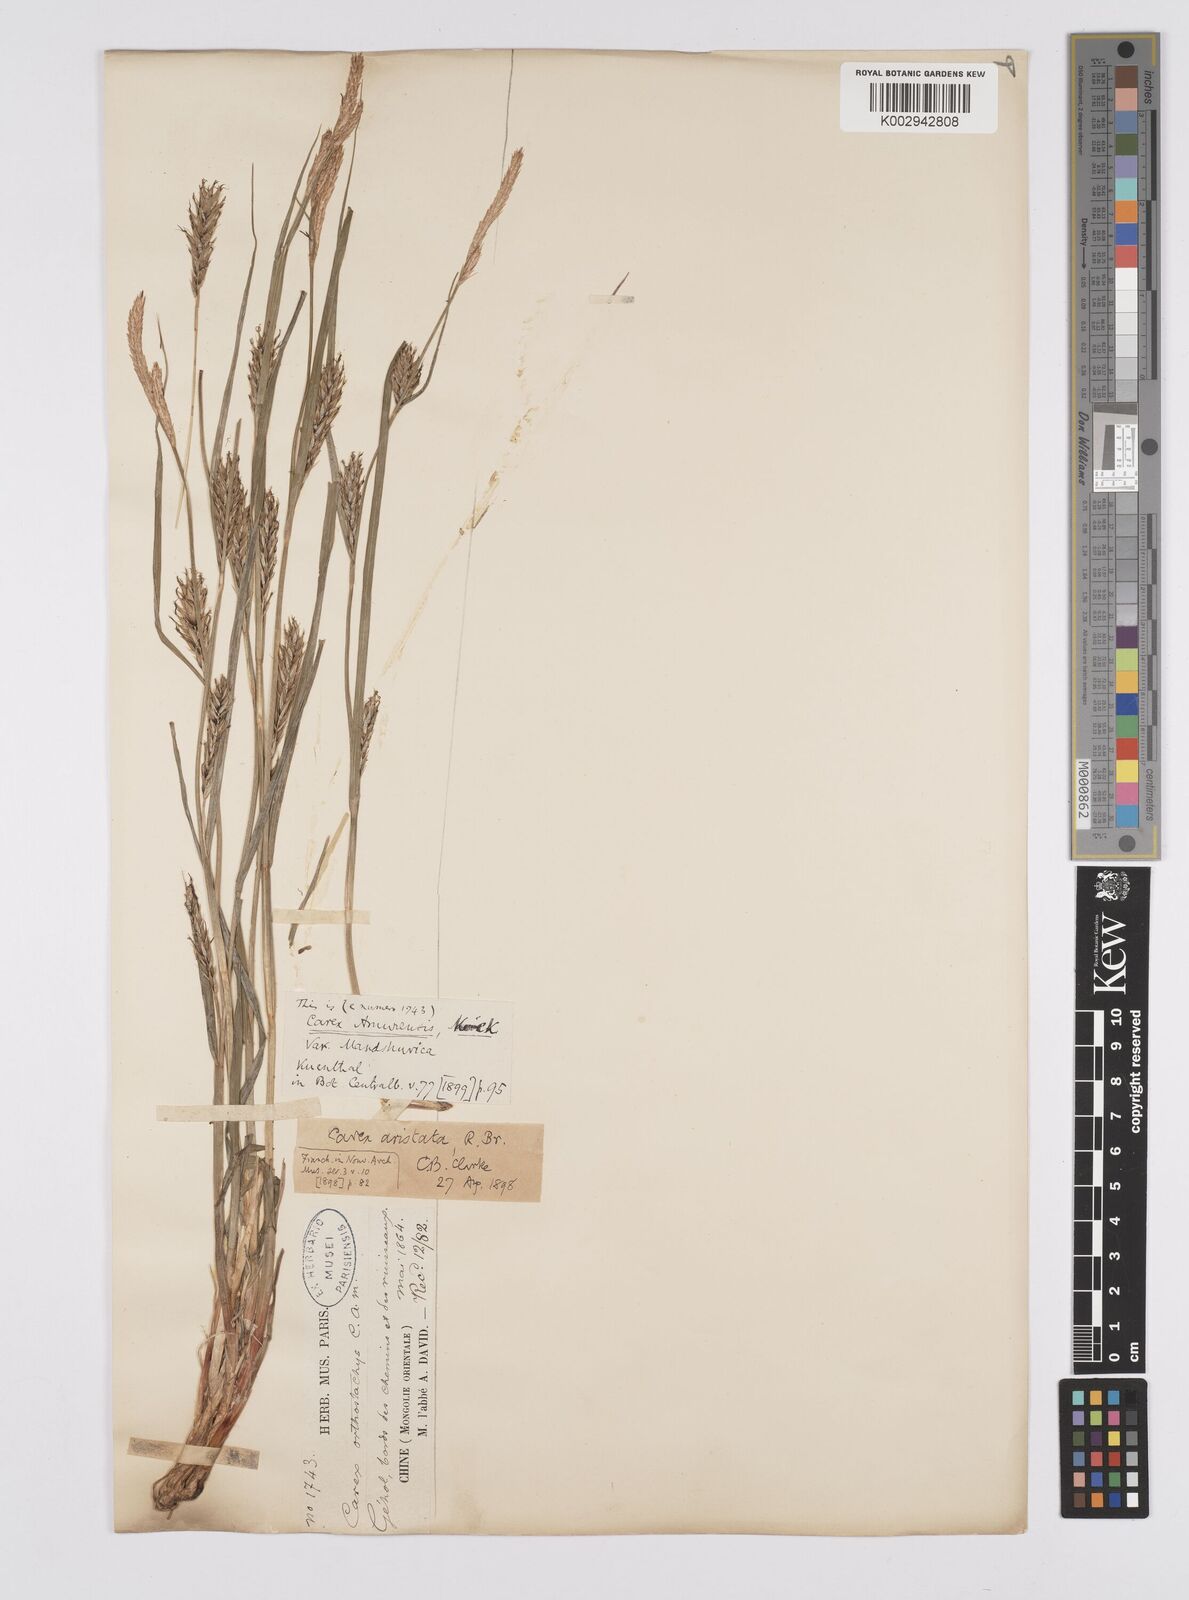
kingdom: Plantae
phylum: Tracheophyta
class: Liliopsida
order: Poales
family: Cyperaceae
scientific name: Cyperaceae
